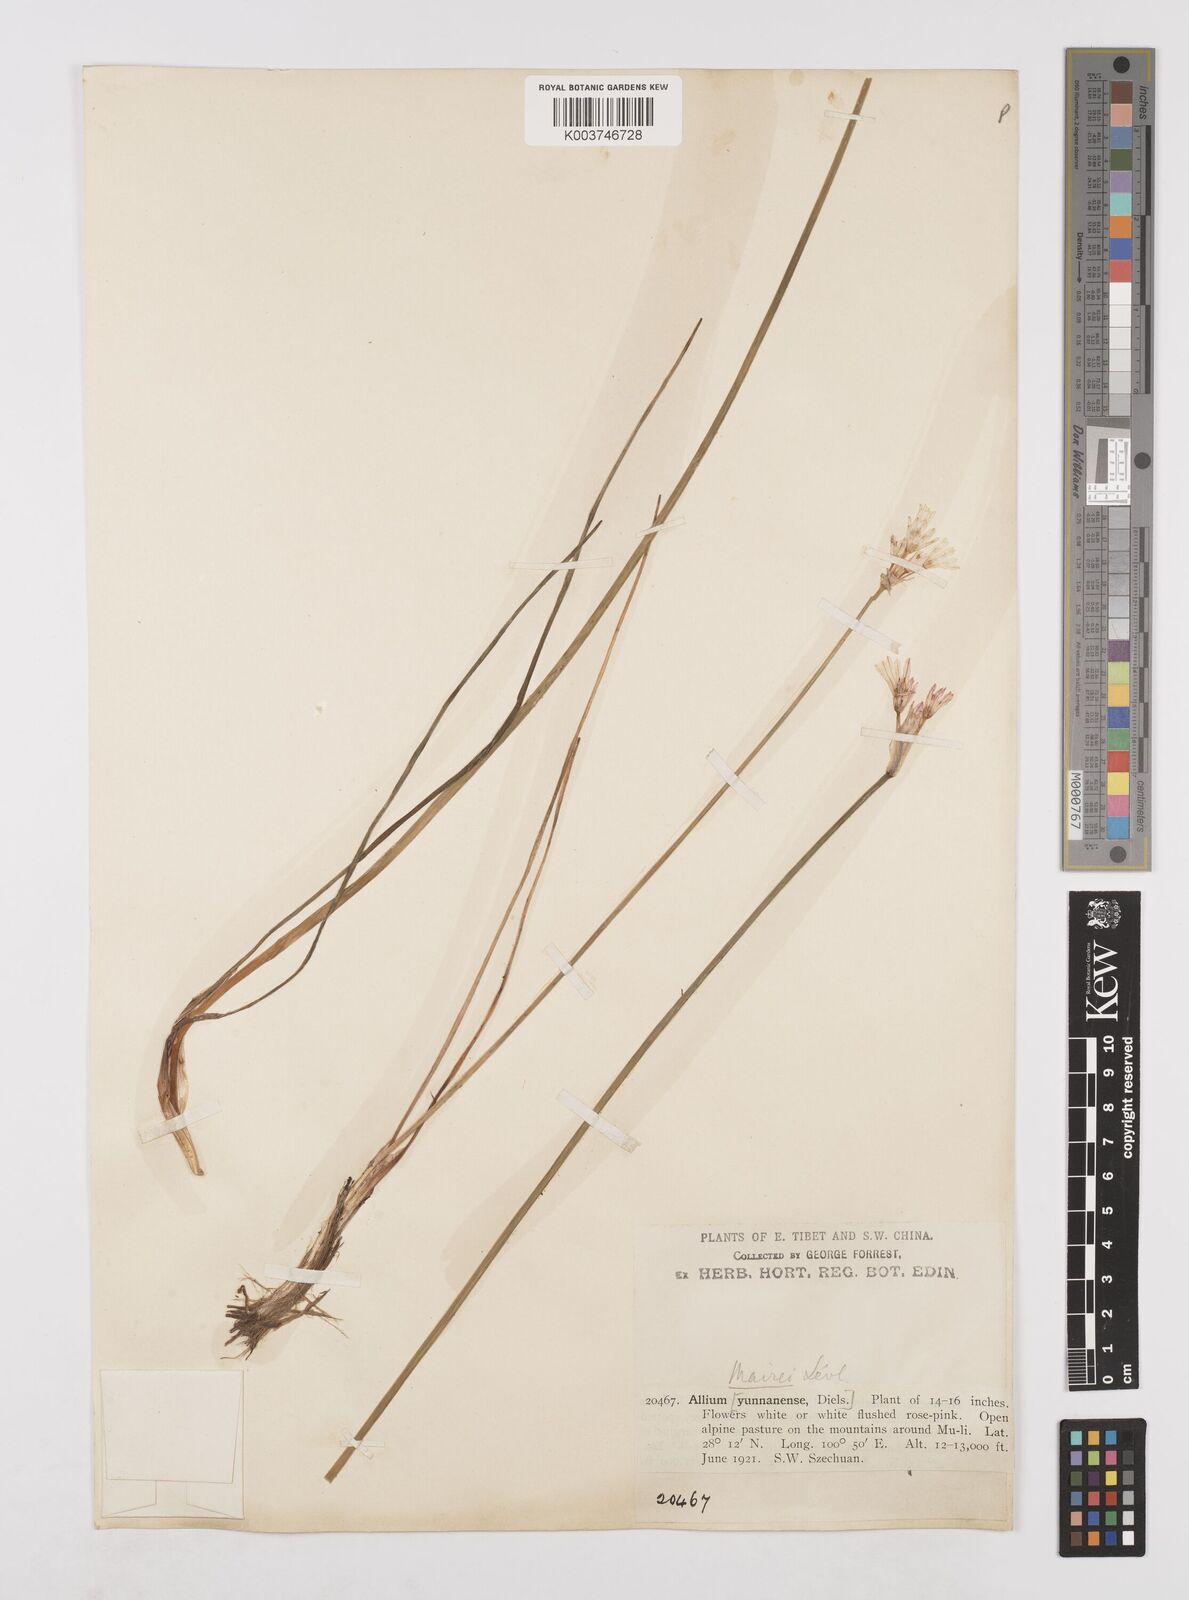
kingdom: Plantae
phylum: Tracheophyta
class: Liliopsida
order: Asparagales
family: Amaryllidaceae
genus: Allium
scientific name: Allium mairei
